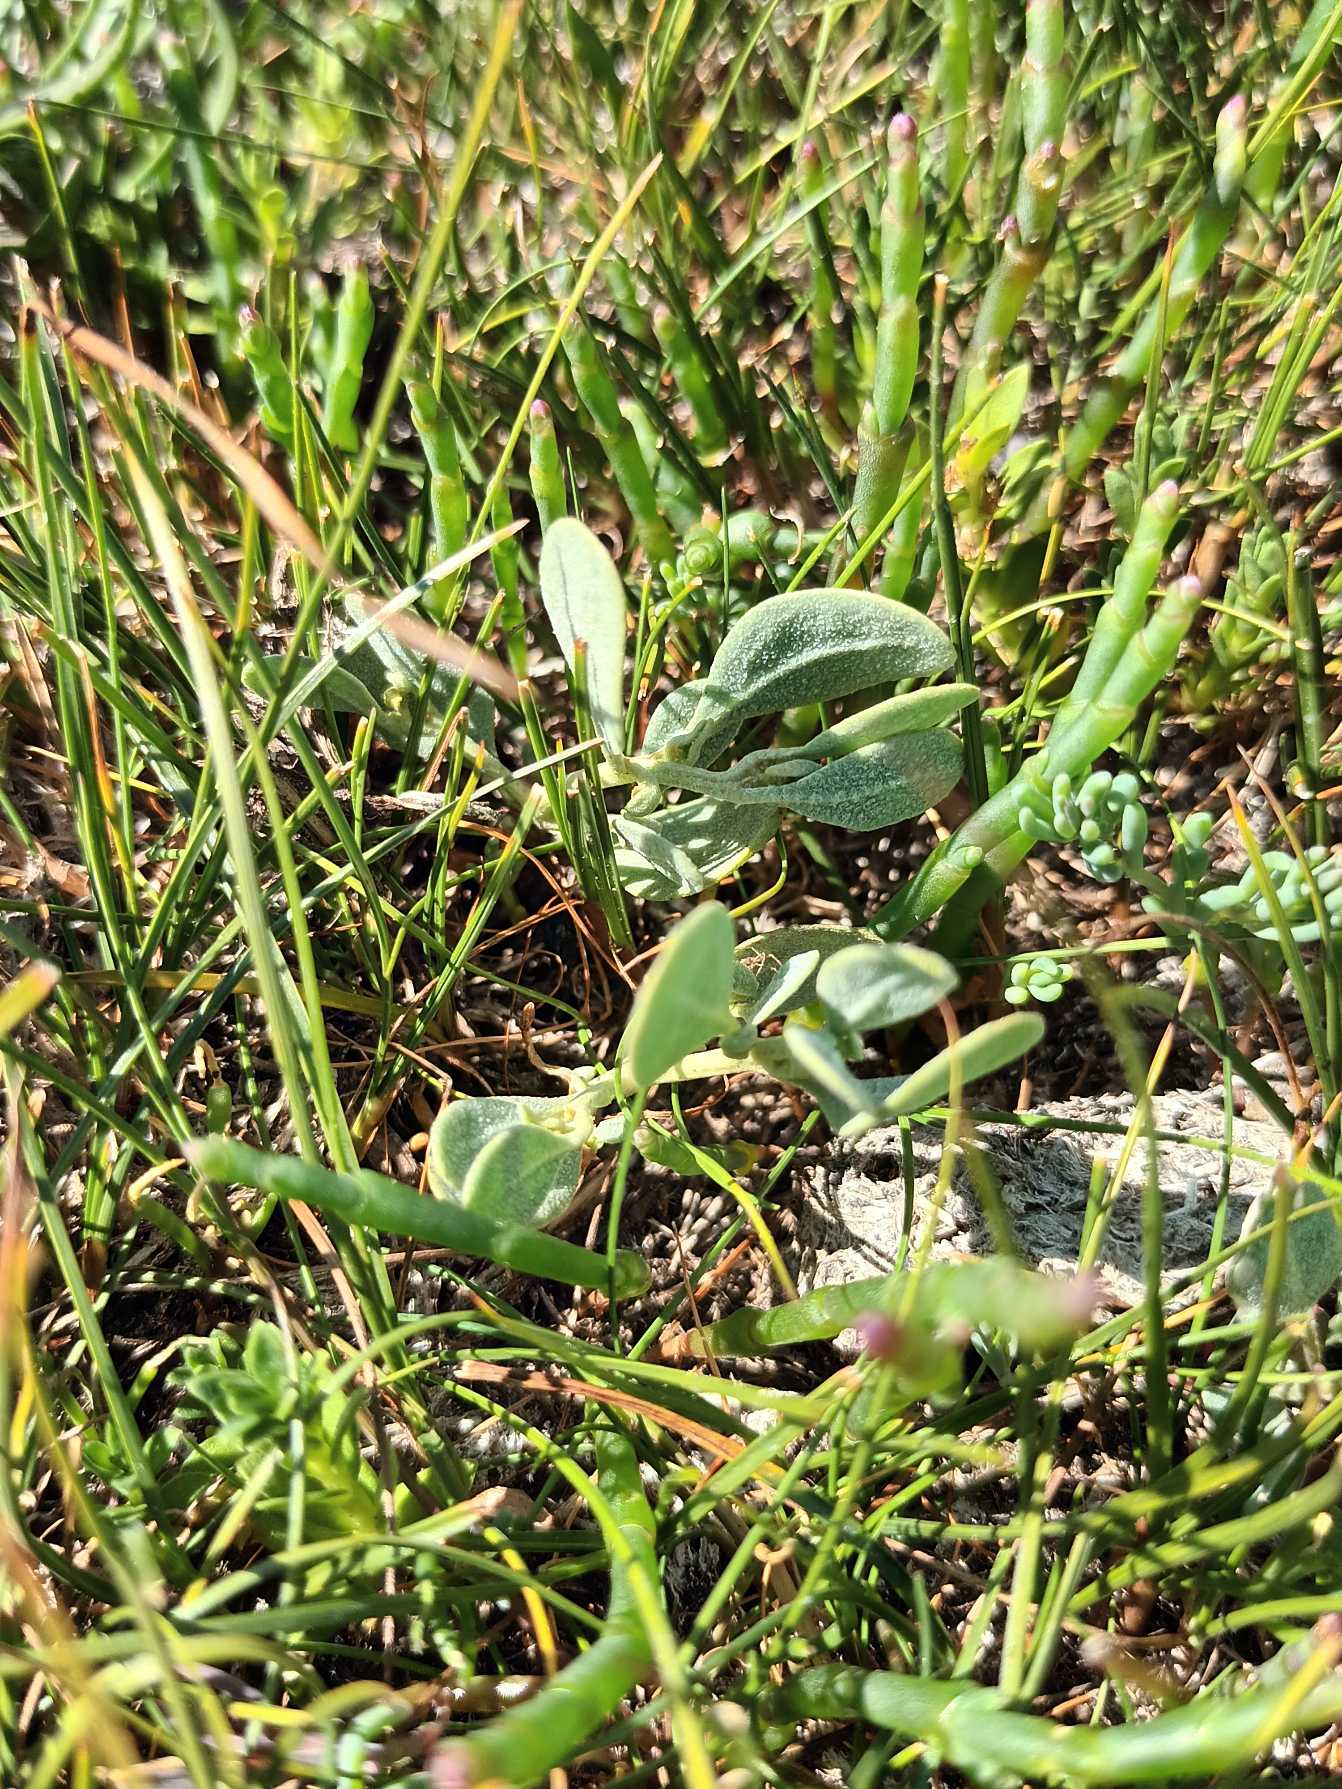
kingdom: Plantae
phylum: Tracheophyta
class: Magnoliopsida
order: Caryophyllales
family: Amaranthaceae
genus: Halimione
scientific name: Halimione pedunculata
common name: Stilket kilebæger
